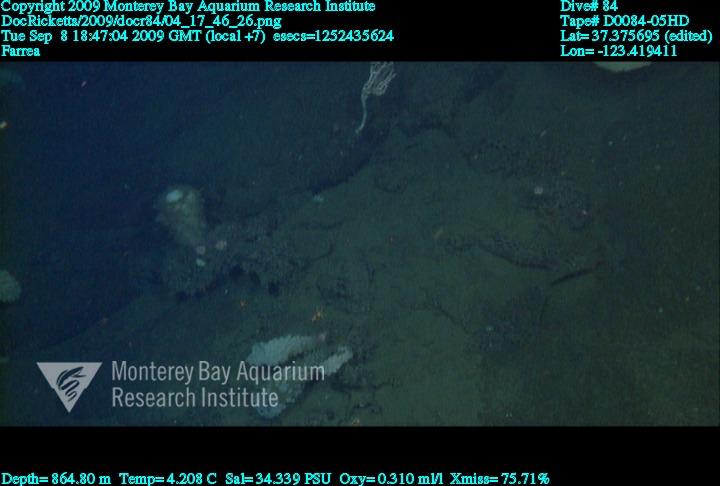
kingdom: Animalia
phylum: Porifera
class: Hexactinellida
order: Sceptrulophora
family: Farreidae
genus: Farrea
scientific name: Farrea
